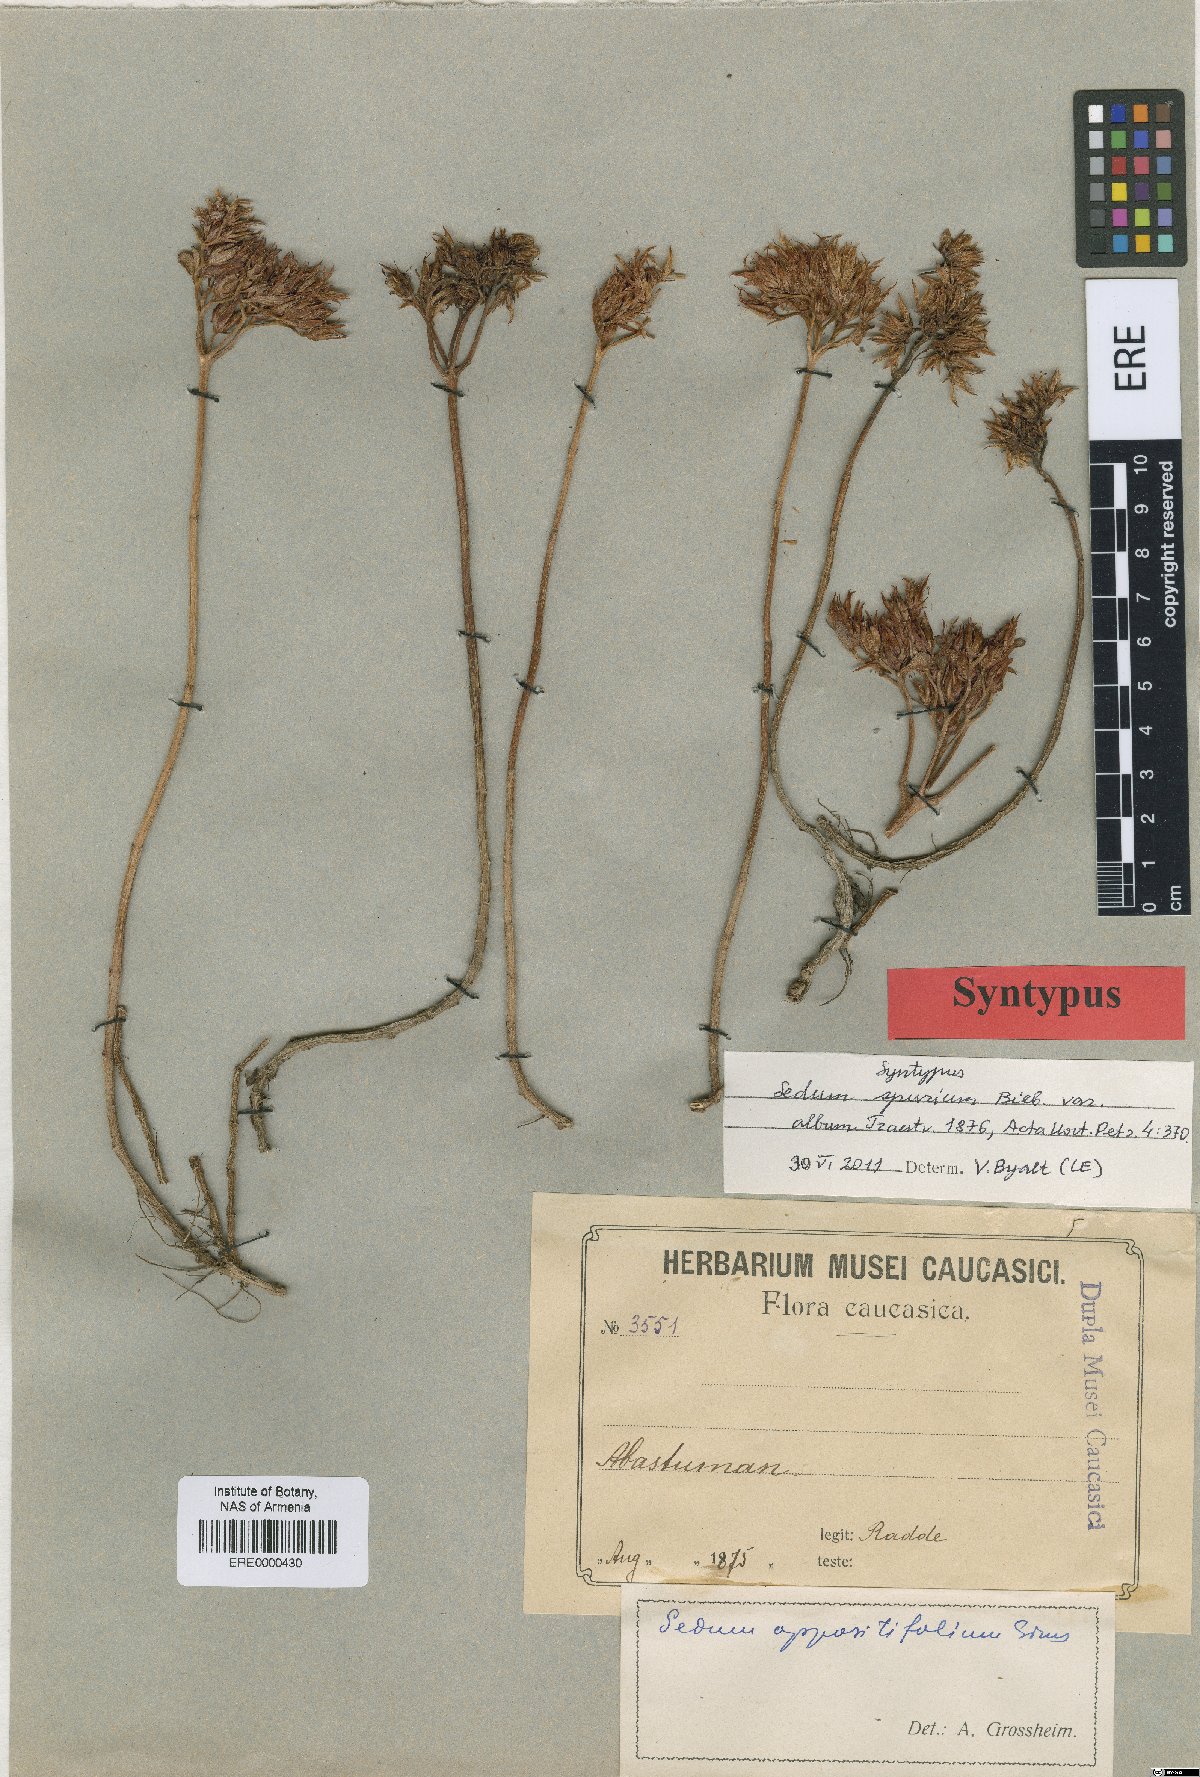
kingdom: Plantae
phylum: Tracheophyta
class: Magnoliopsida
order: Saxifragales
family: Crassulaceae
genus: Phedimus
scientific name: Phedimus spurius
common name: Caucasian stonecrop
